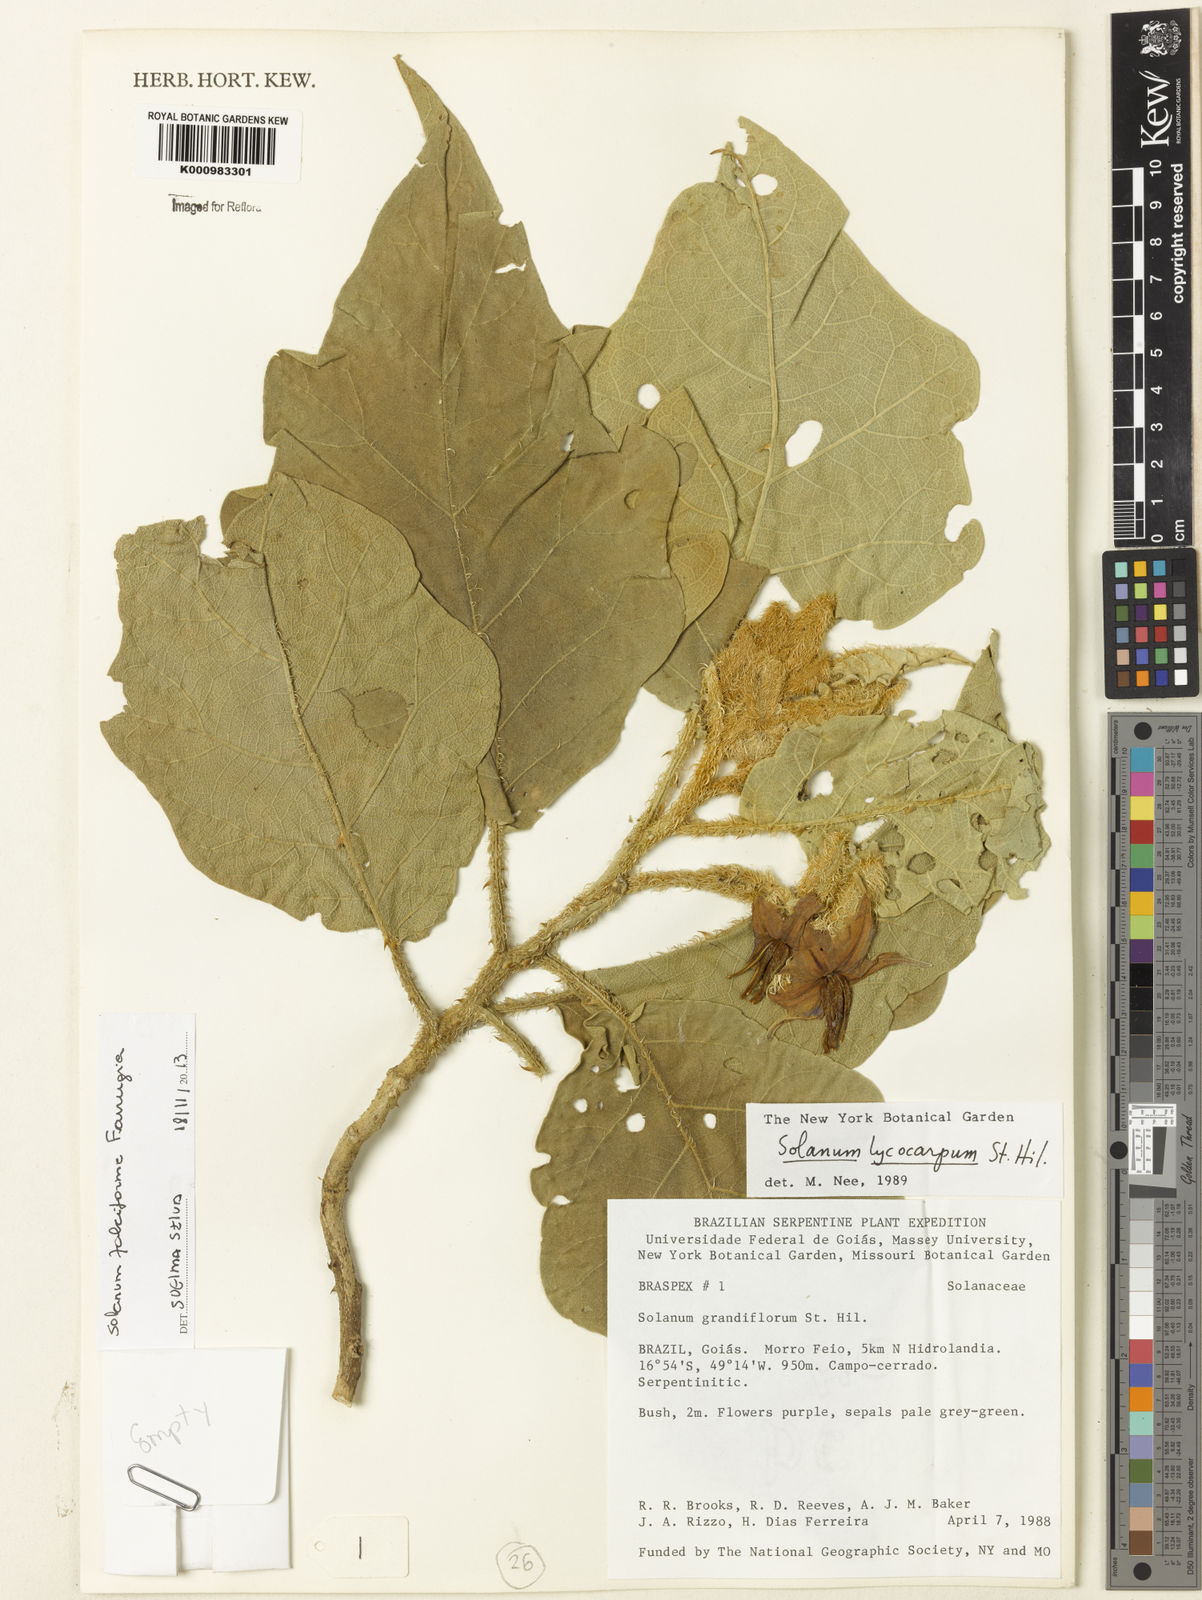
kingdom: Plantae
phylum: Tracheophyta
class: Magnoliopsida
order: Solanales
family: Solanaceae
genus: Solanum
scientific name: Solanum
